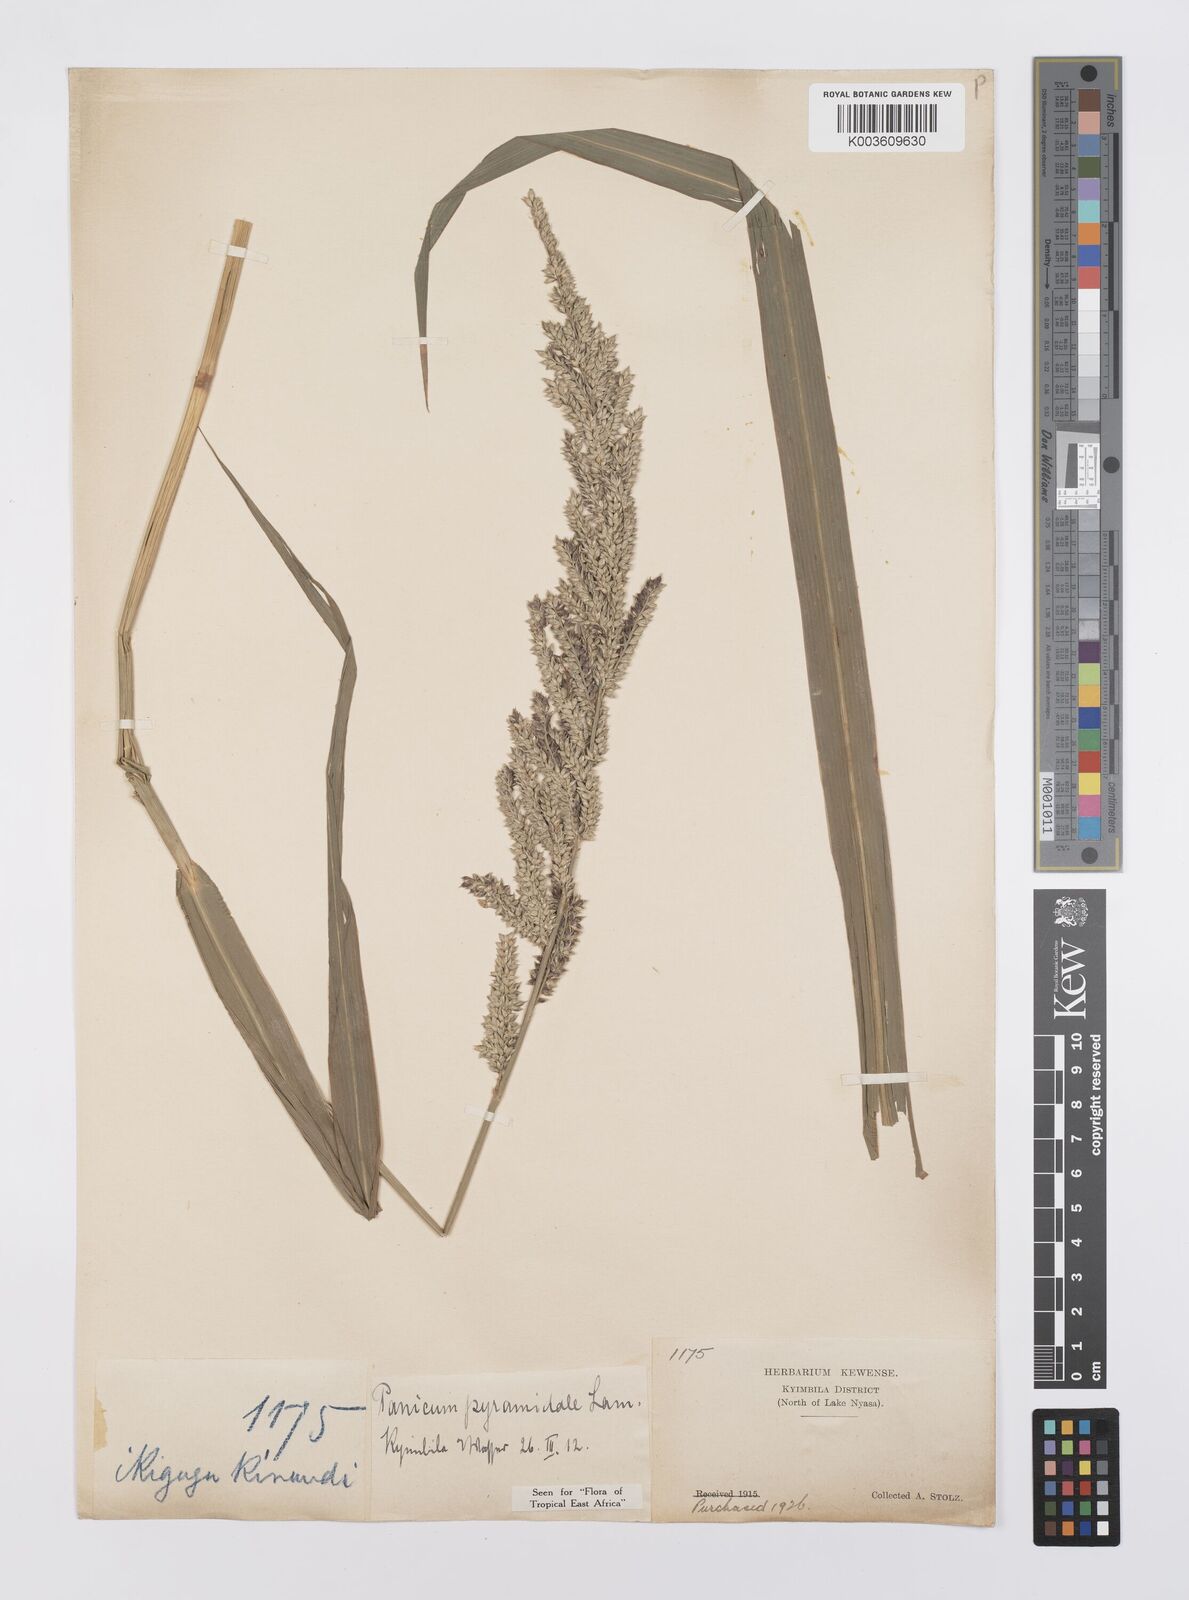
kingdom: Plantae
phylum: Tracheophyta
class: Liliopsida
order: Poales
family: Poaceae
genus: Echinochloa
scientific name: Echinochloa pyramidalis
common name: Antelope grass
